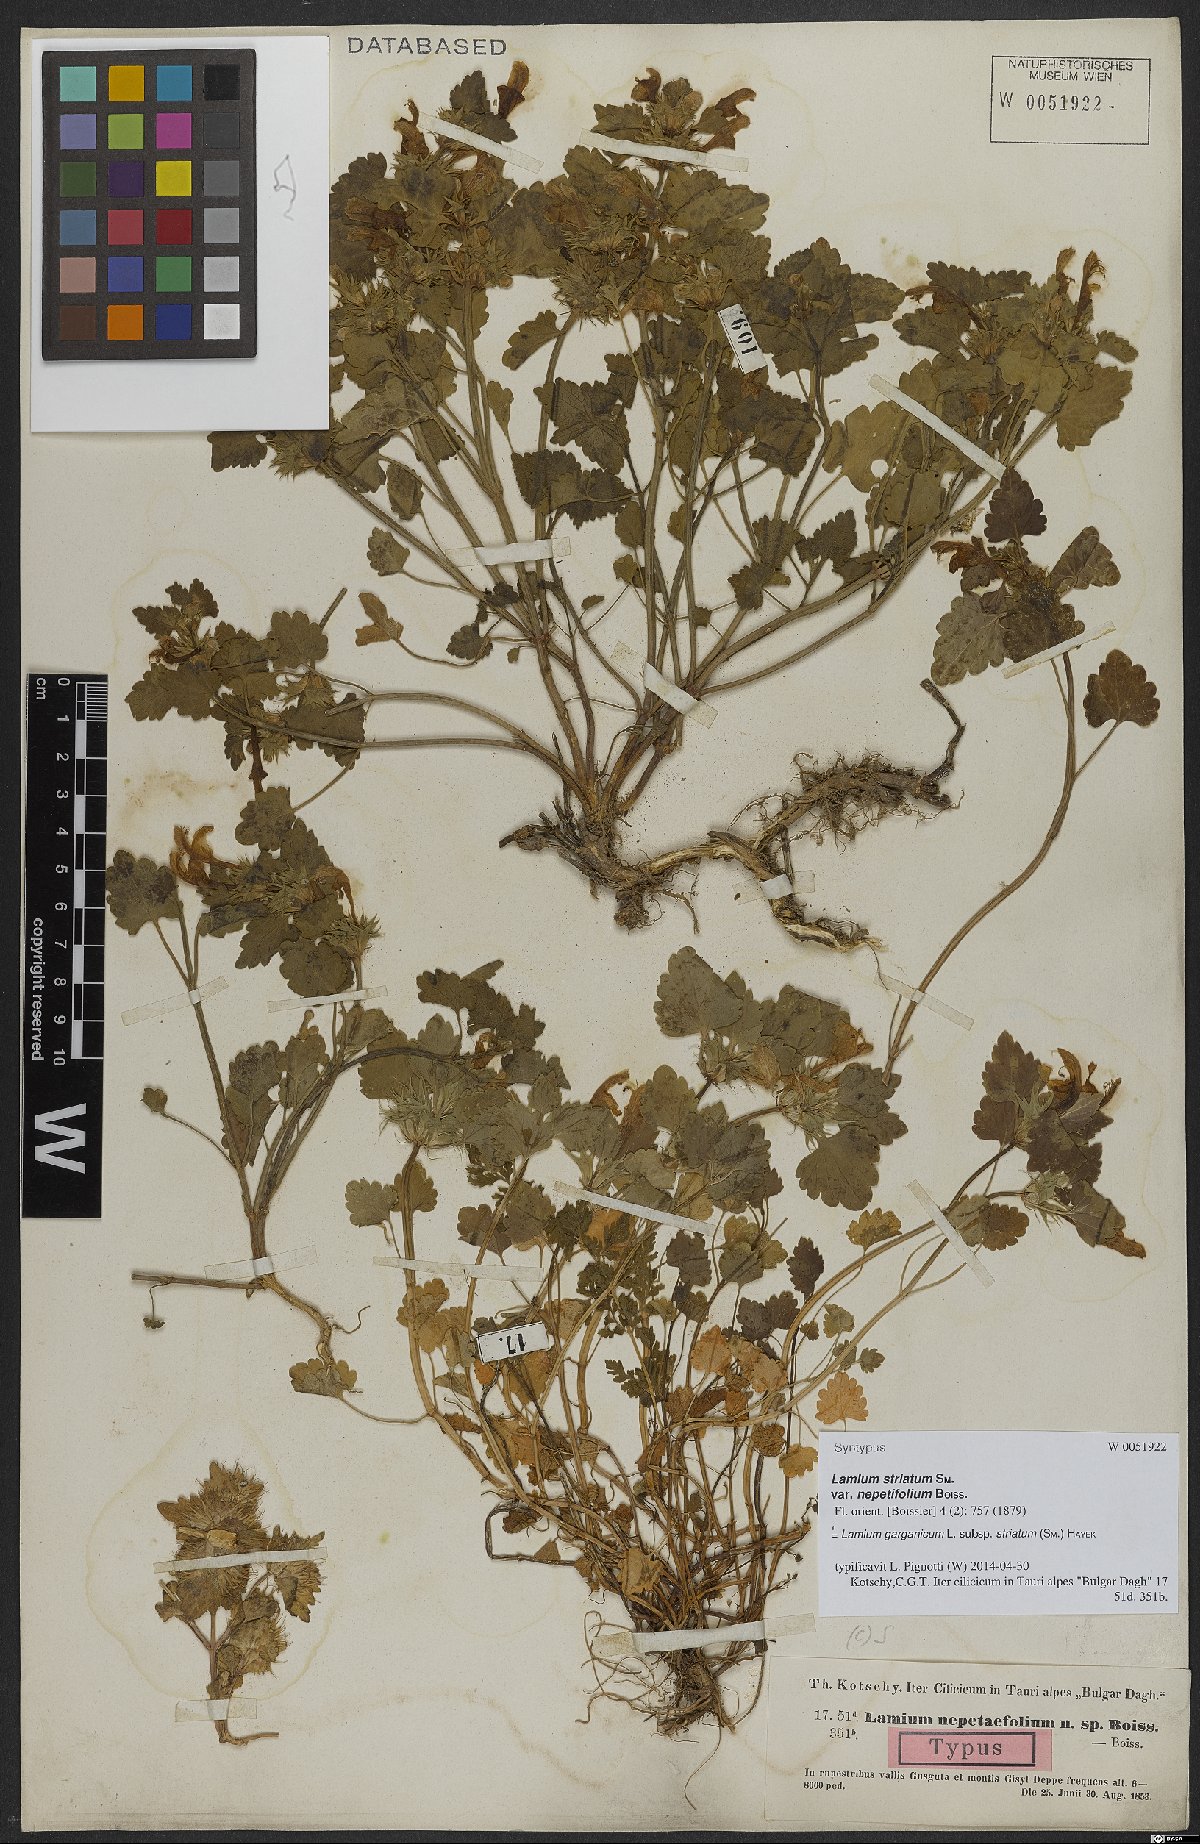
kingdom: Plantae
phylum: Tracheophyta
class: Magnoliopsida
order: Lamiales
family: Lamiaceae
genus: Lamium
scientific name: Lamium garganicum
